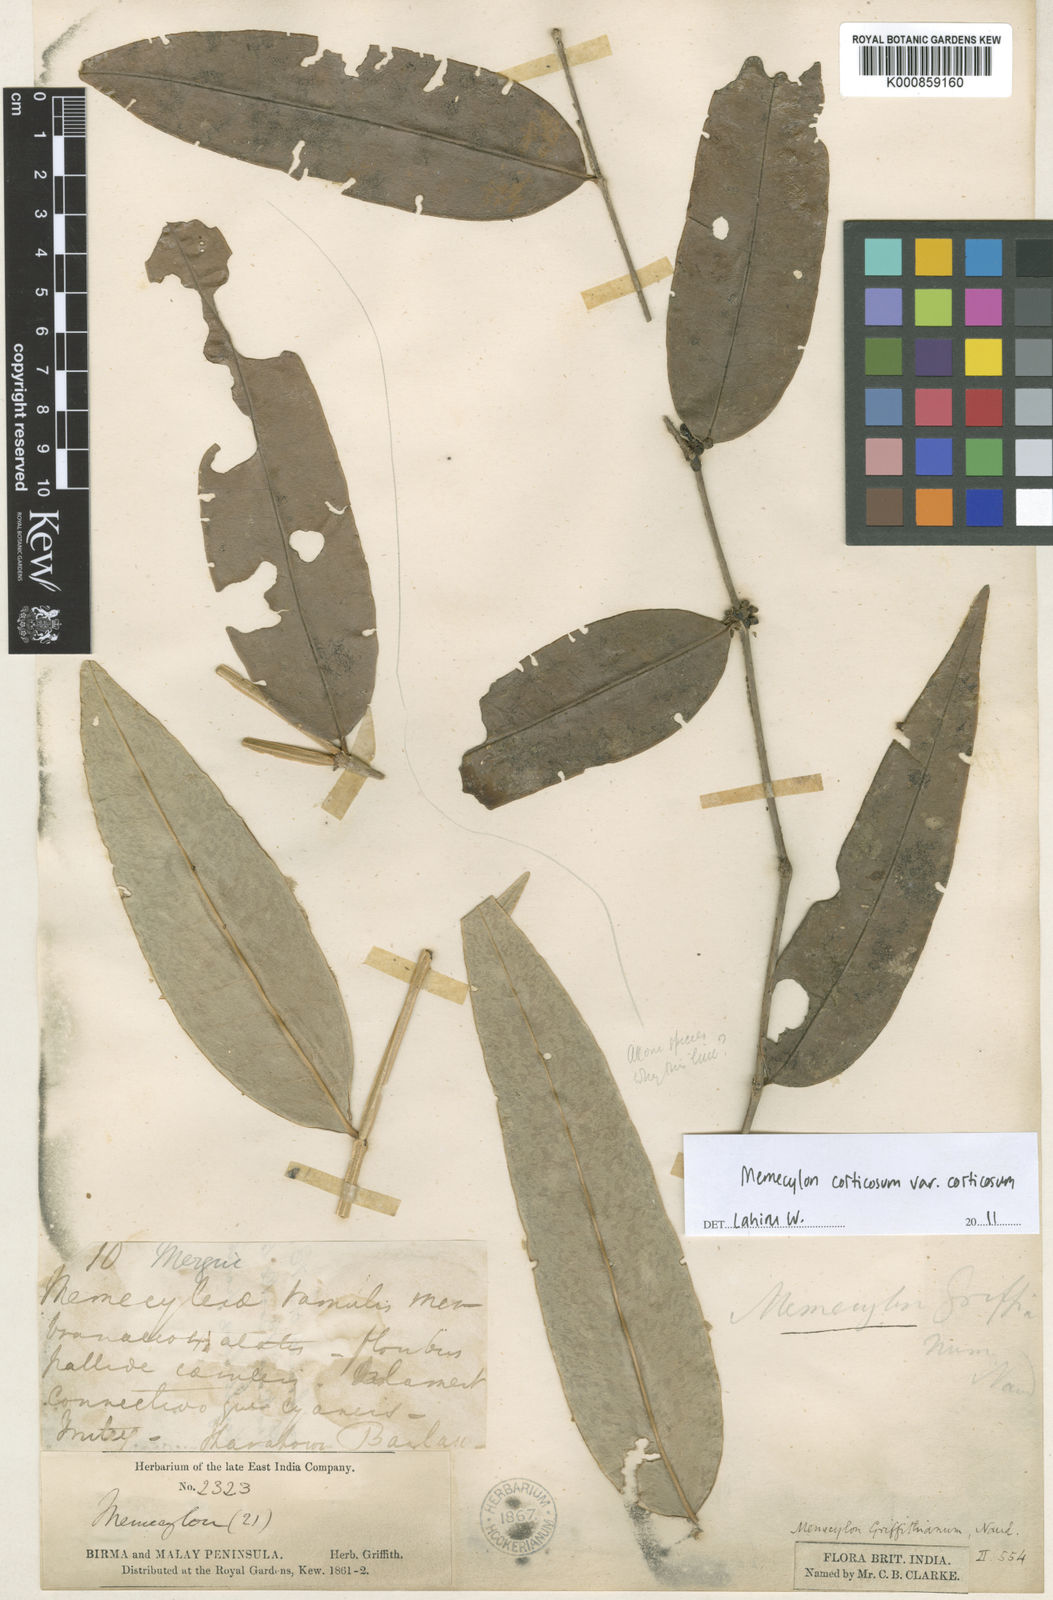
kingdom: Plantae
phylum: Tracheophyta
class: Magnoliopsida
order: Myrtales
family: Melastomataceae
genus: Memecylon
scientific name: Memecylon griffithianum
